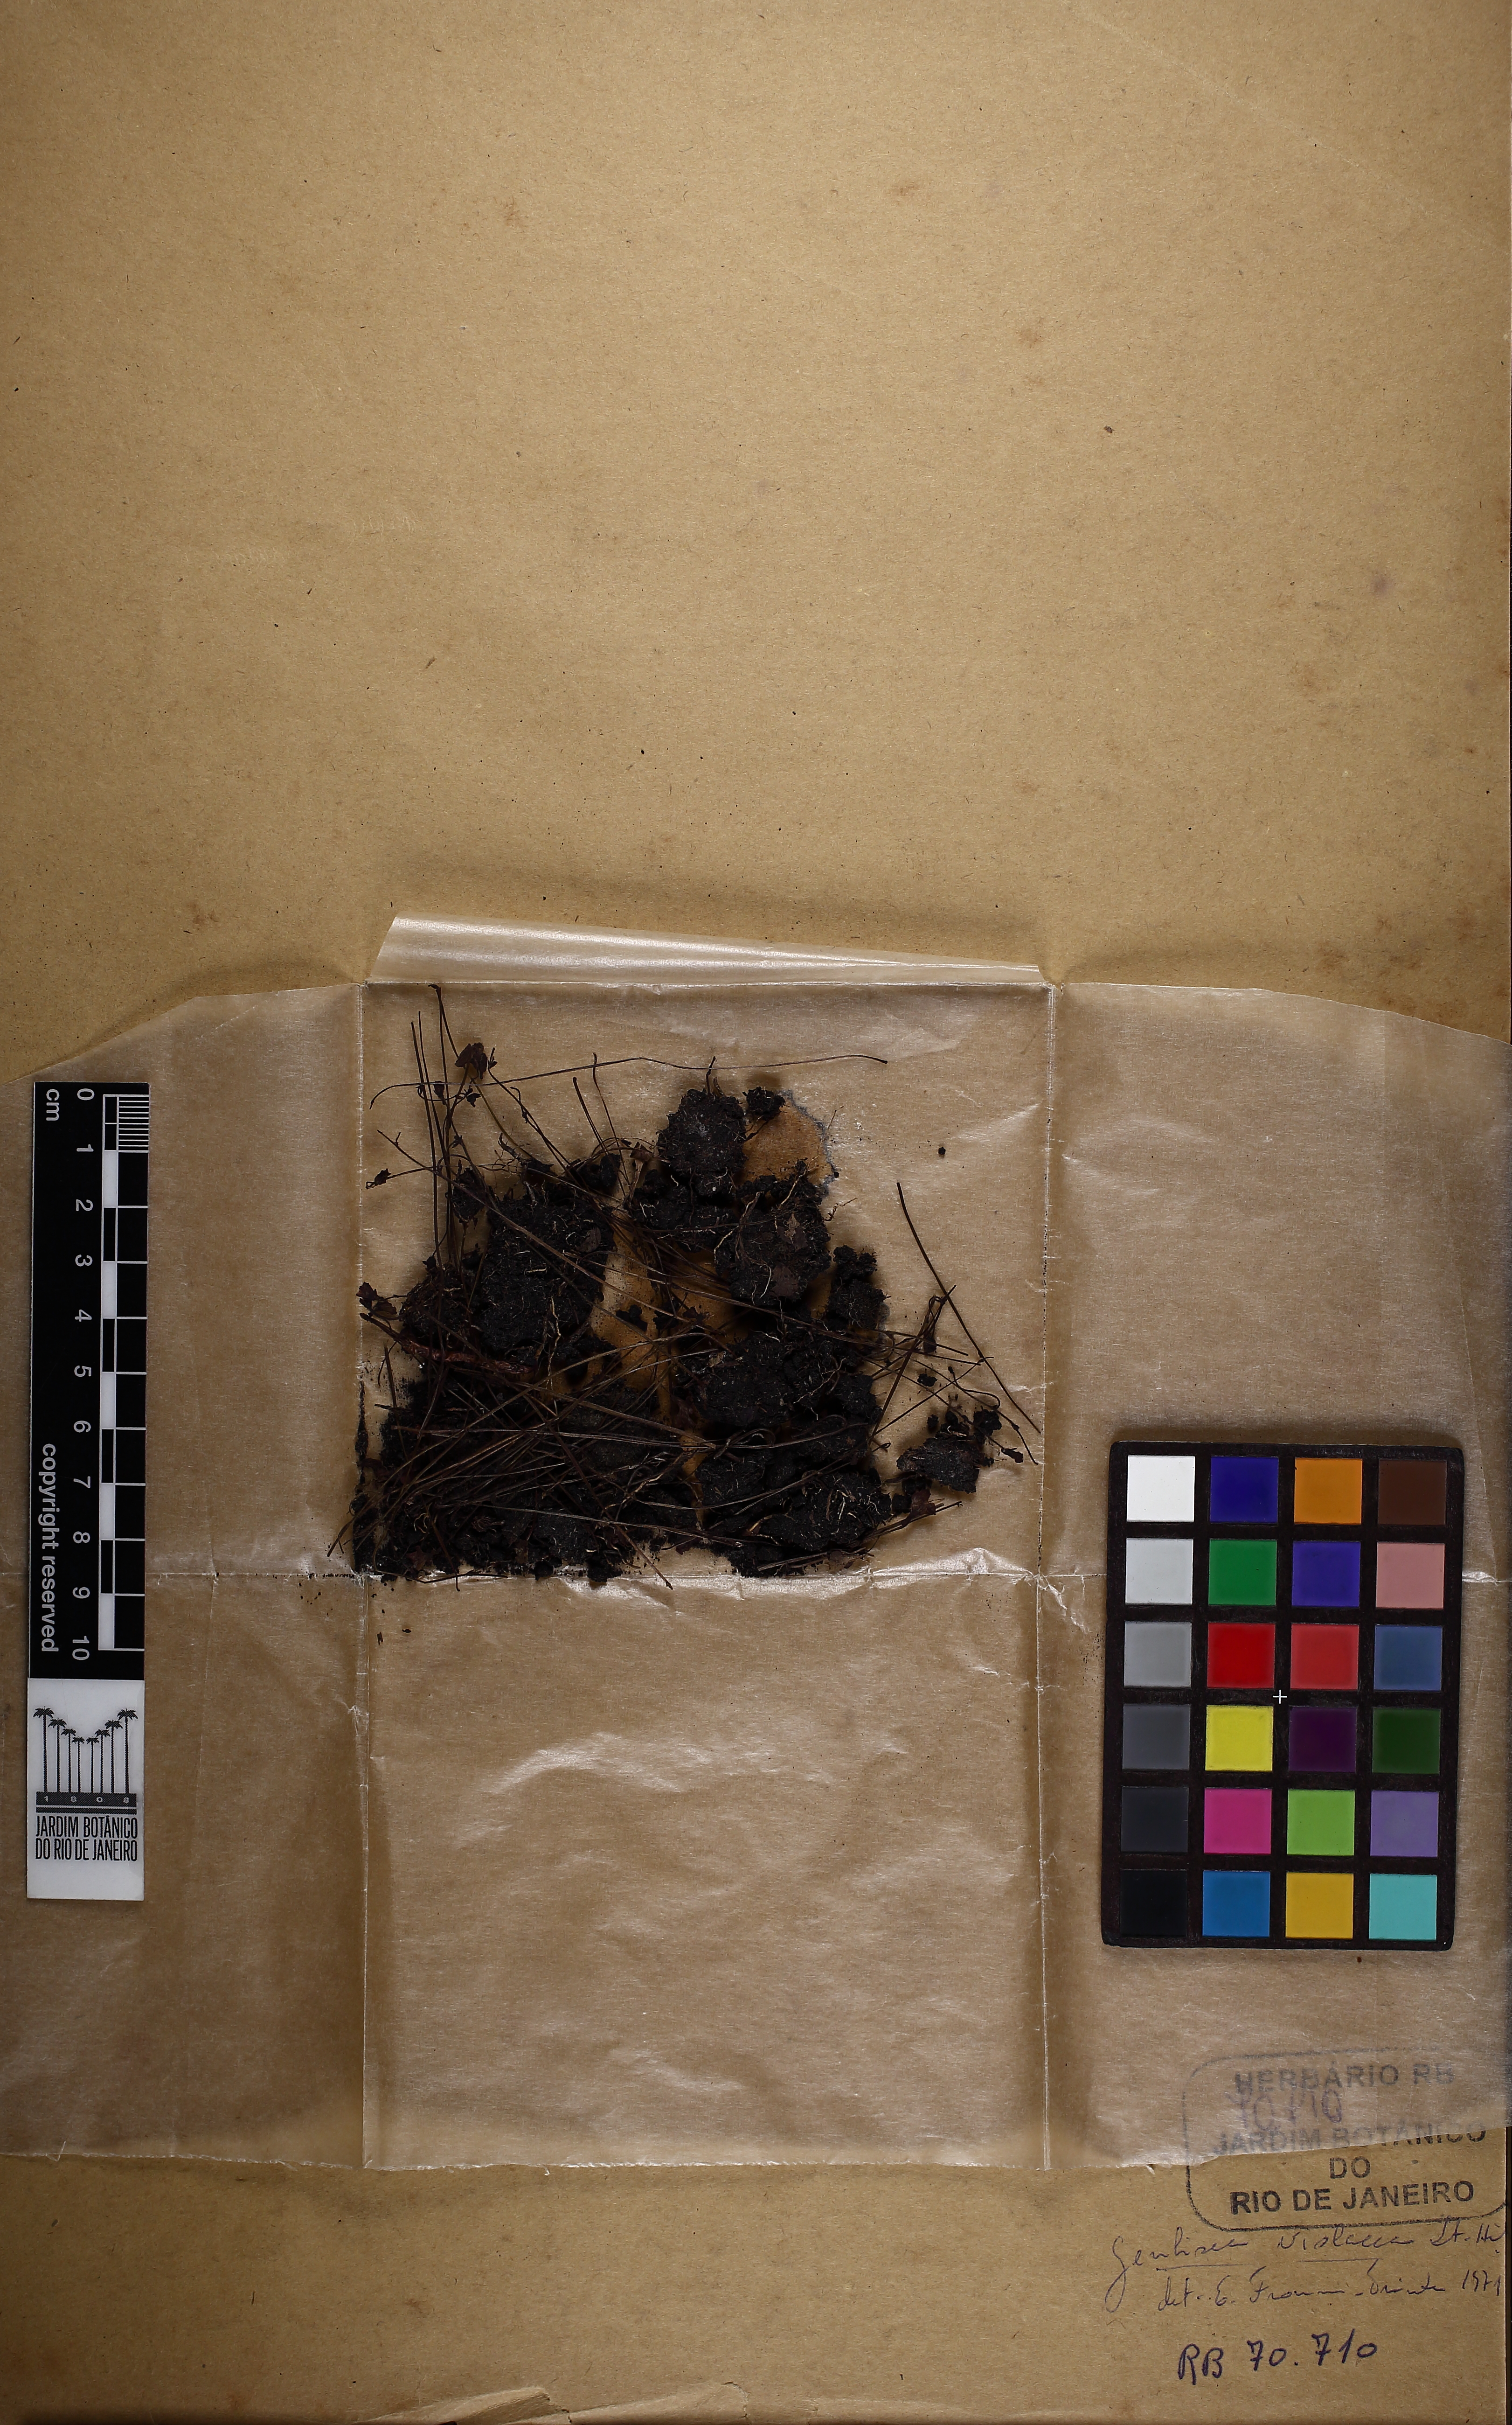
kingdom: Plantae
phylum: Tracheophyta
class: Magnoliopsida
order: Lamiales
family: Lentibulariaceae
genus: Genlisea
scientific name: Genlisea violacea
